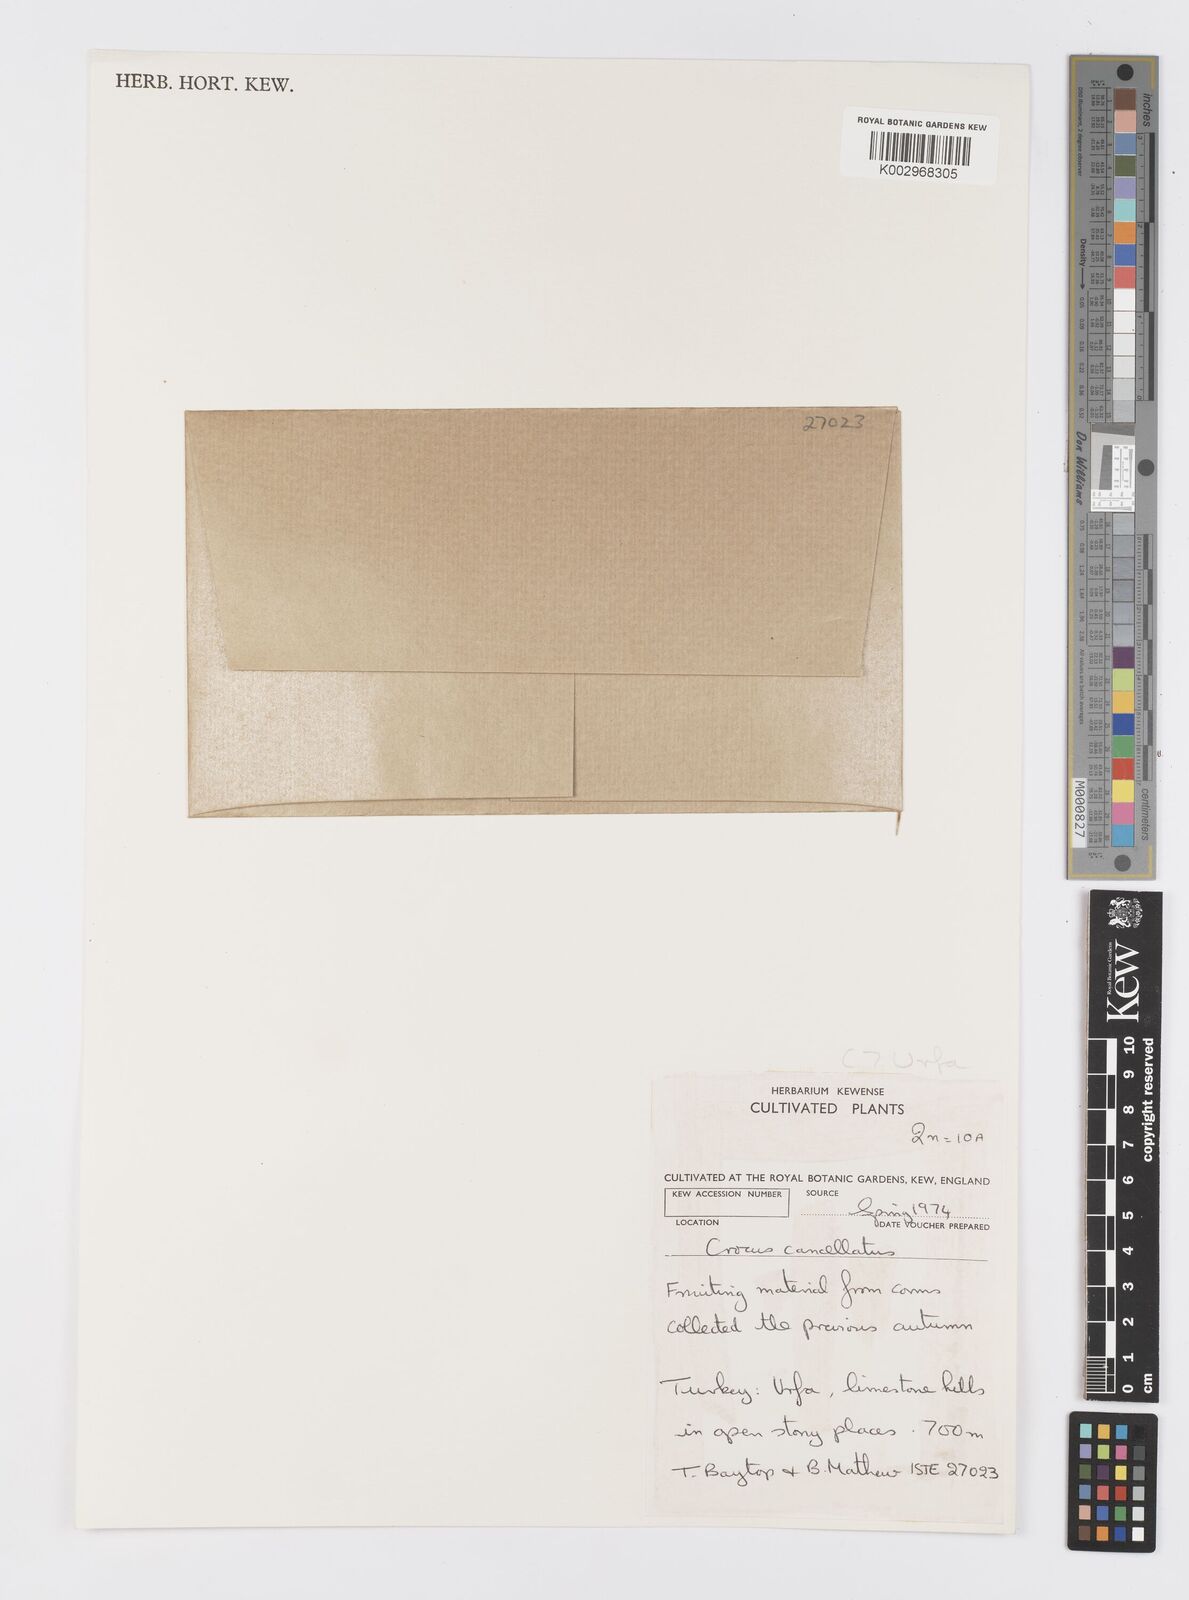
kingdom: Plantae
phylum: Tracheophyta
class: Liliopsida
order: Asparagales
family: Iridaceae
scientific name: Iridaceae
